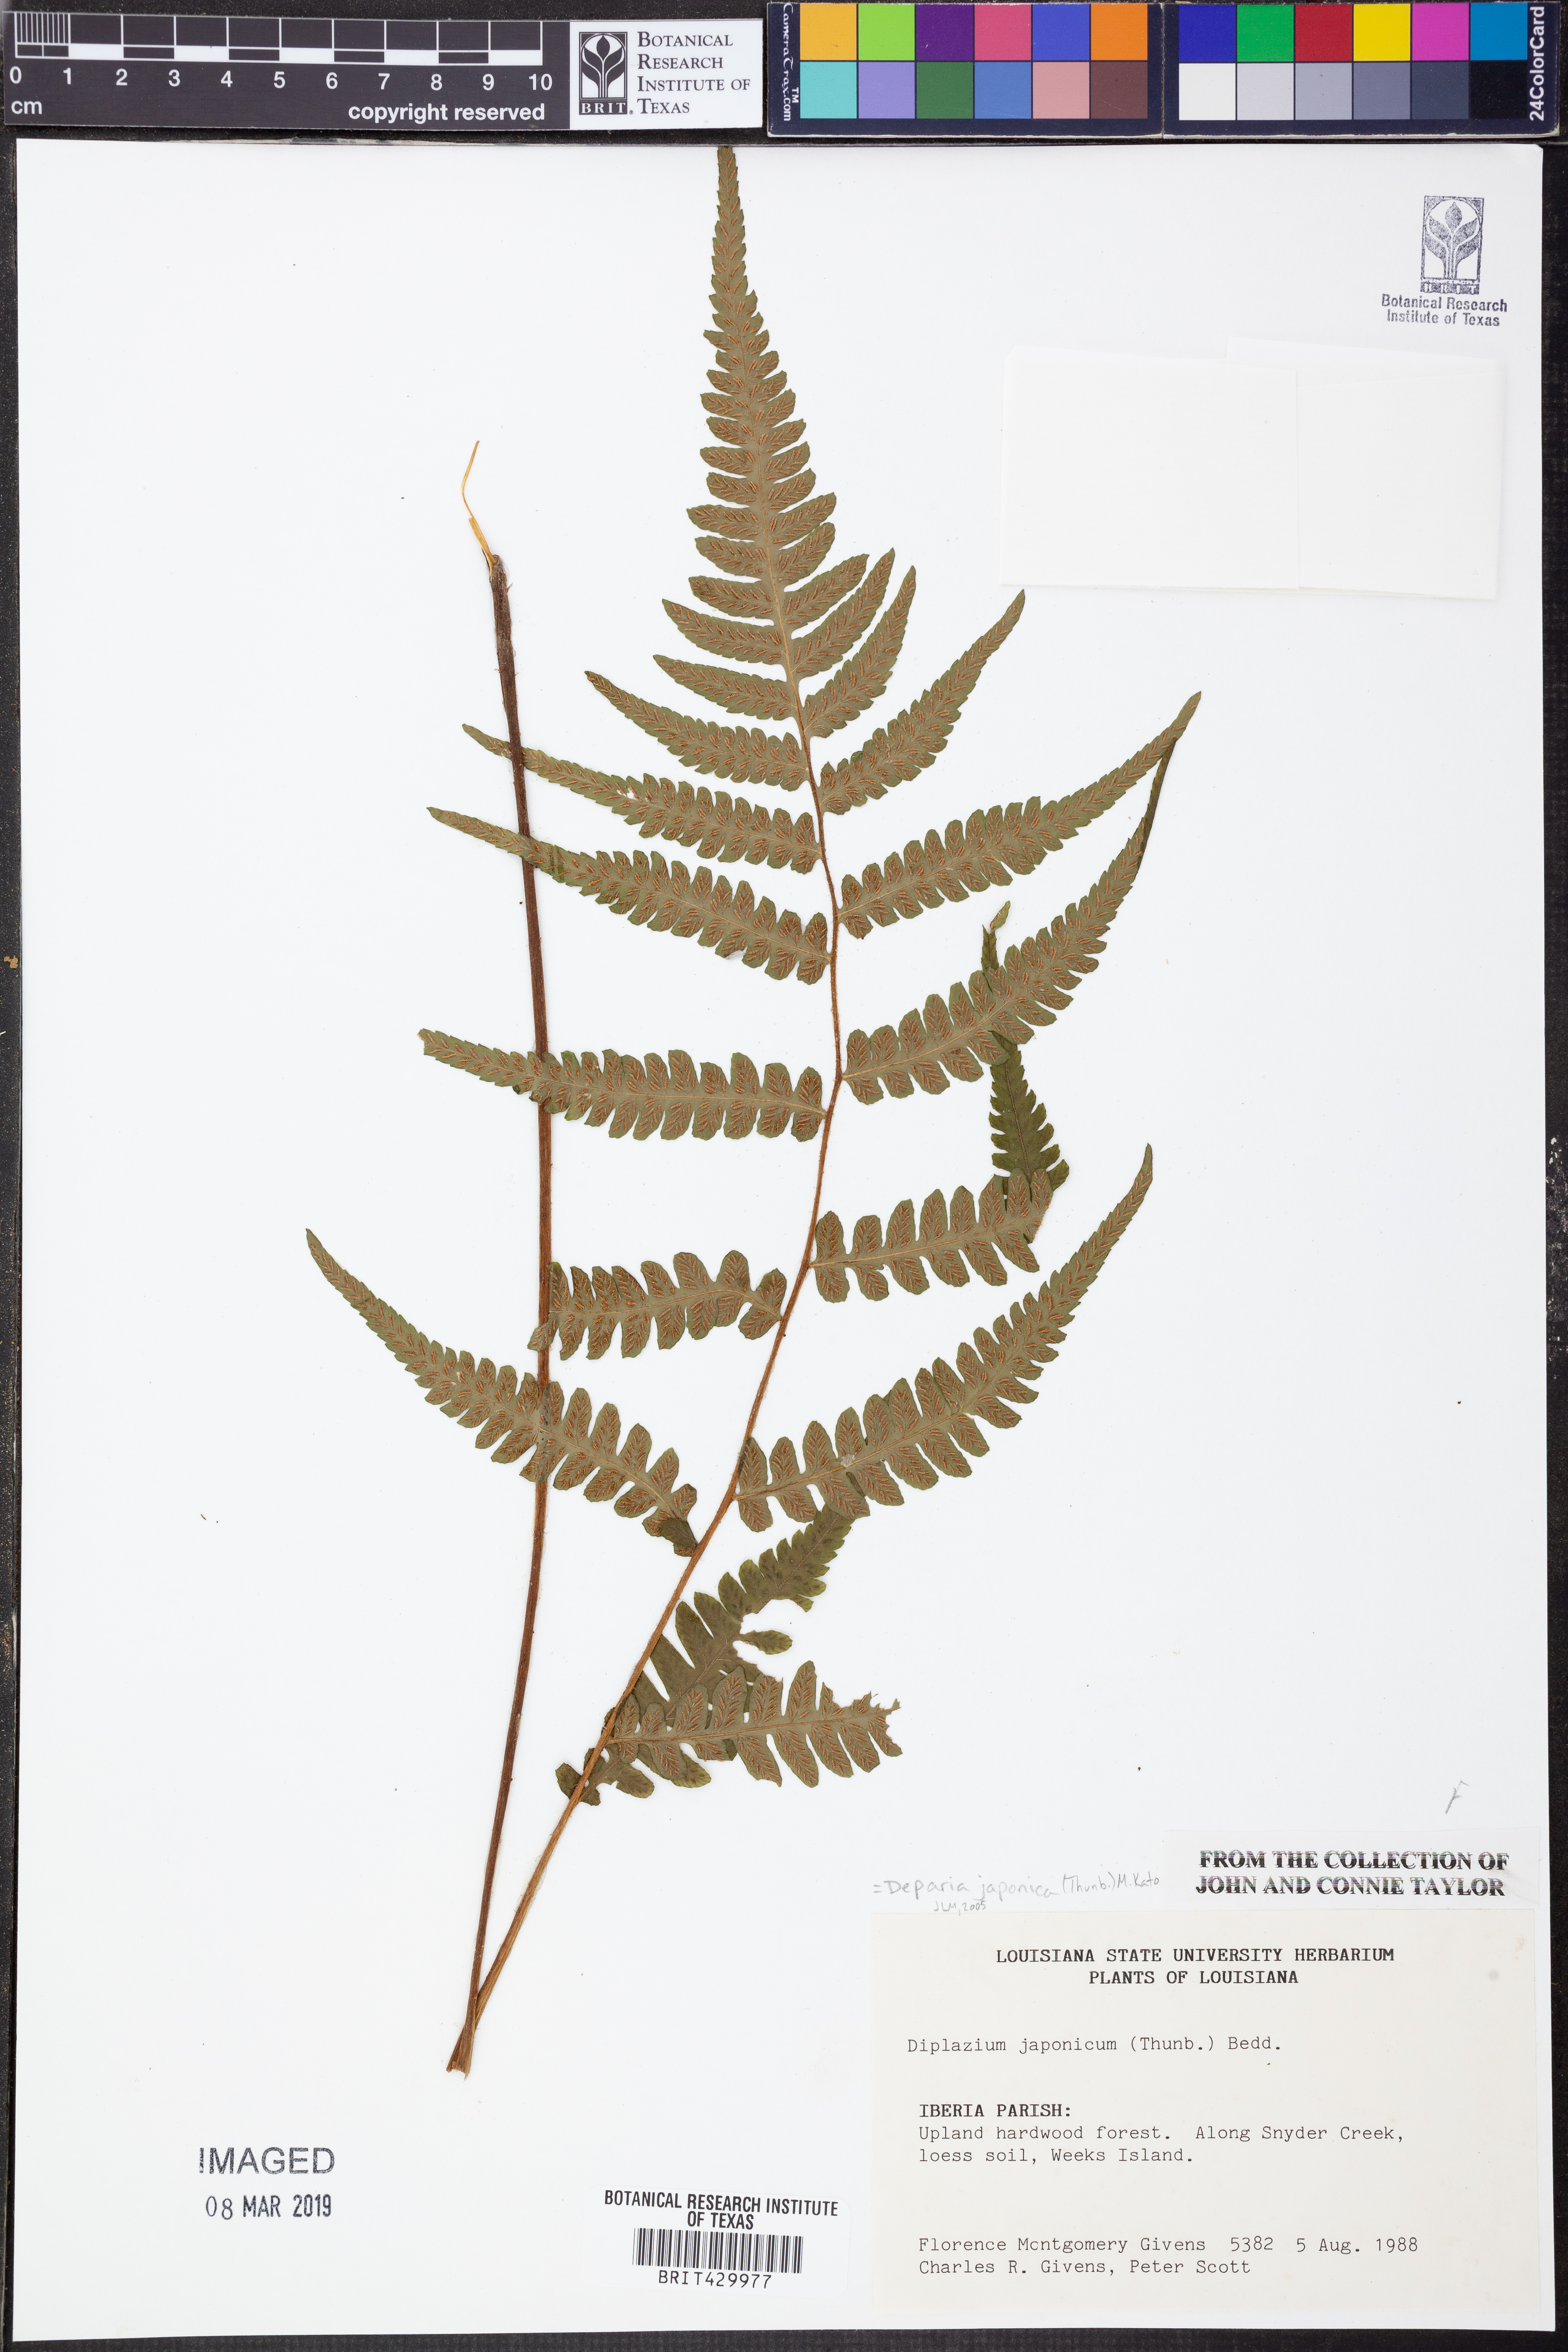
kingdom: Plantae
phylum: Tracheophyta
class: Polypodiopsida
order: Polypodiales
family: Athyriaceae
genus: Deparia
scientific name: Deparia japonica
